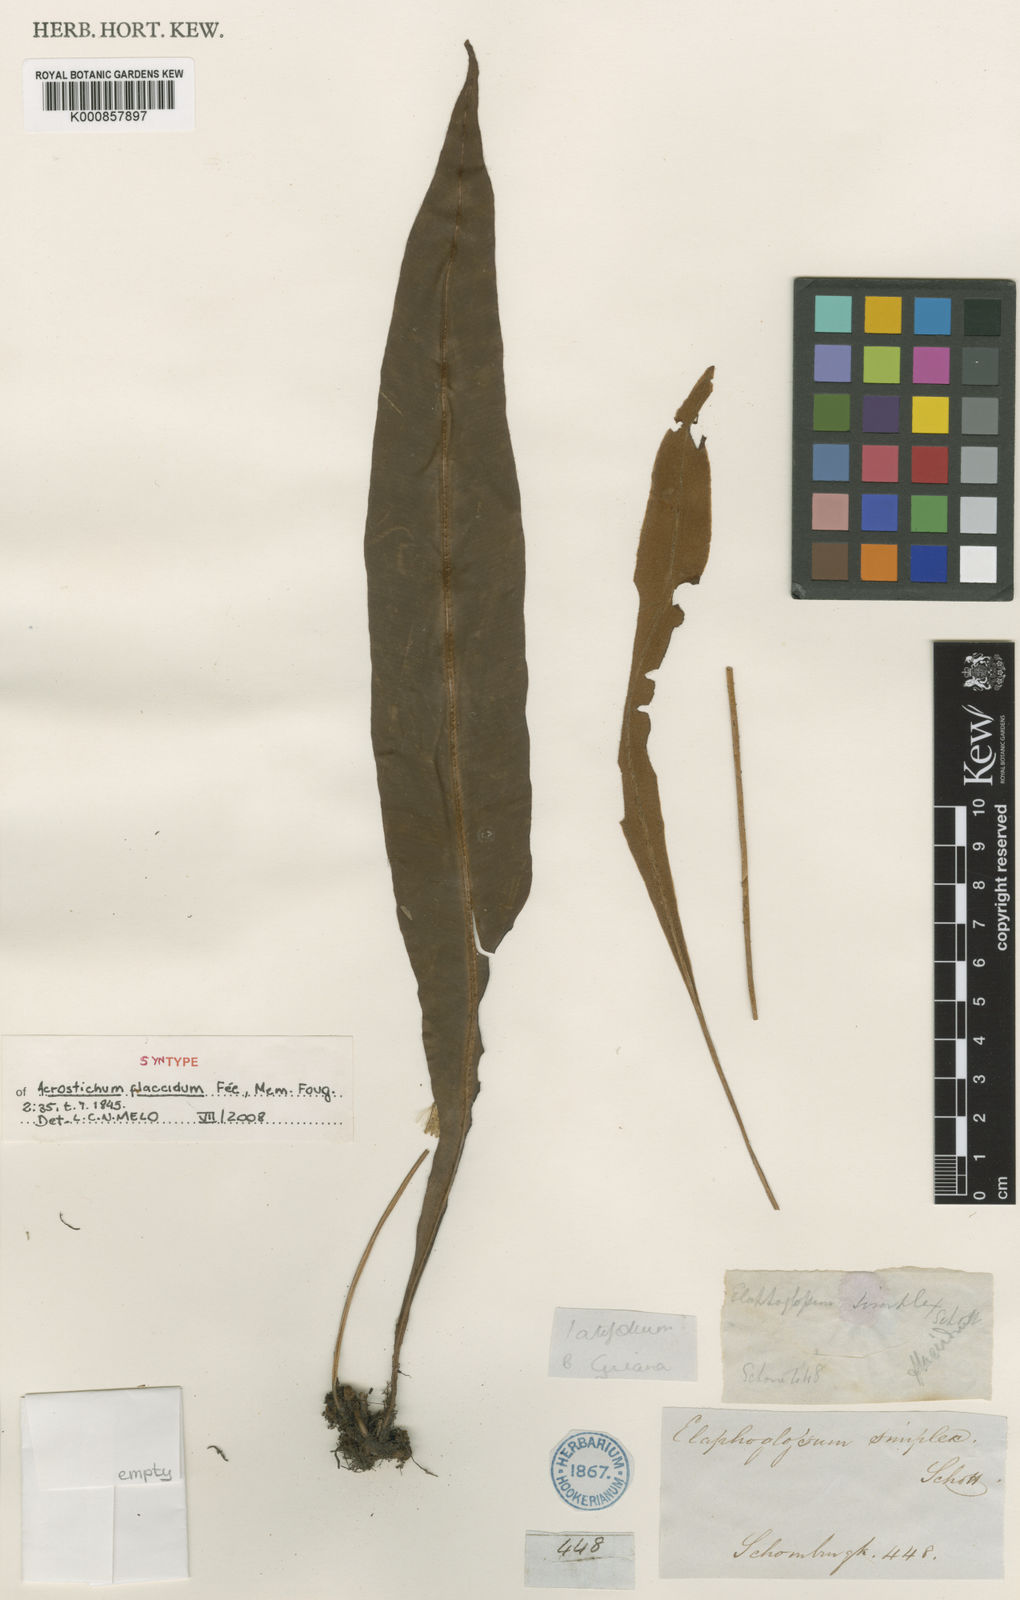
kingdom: Plantae
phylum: Tracheophyta
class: Polypodiopsida
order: Polypodiales
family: Dryopteridaceae
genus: Elaphoglossum
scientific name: Elaphoglossum
